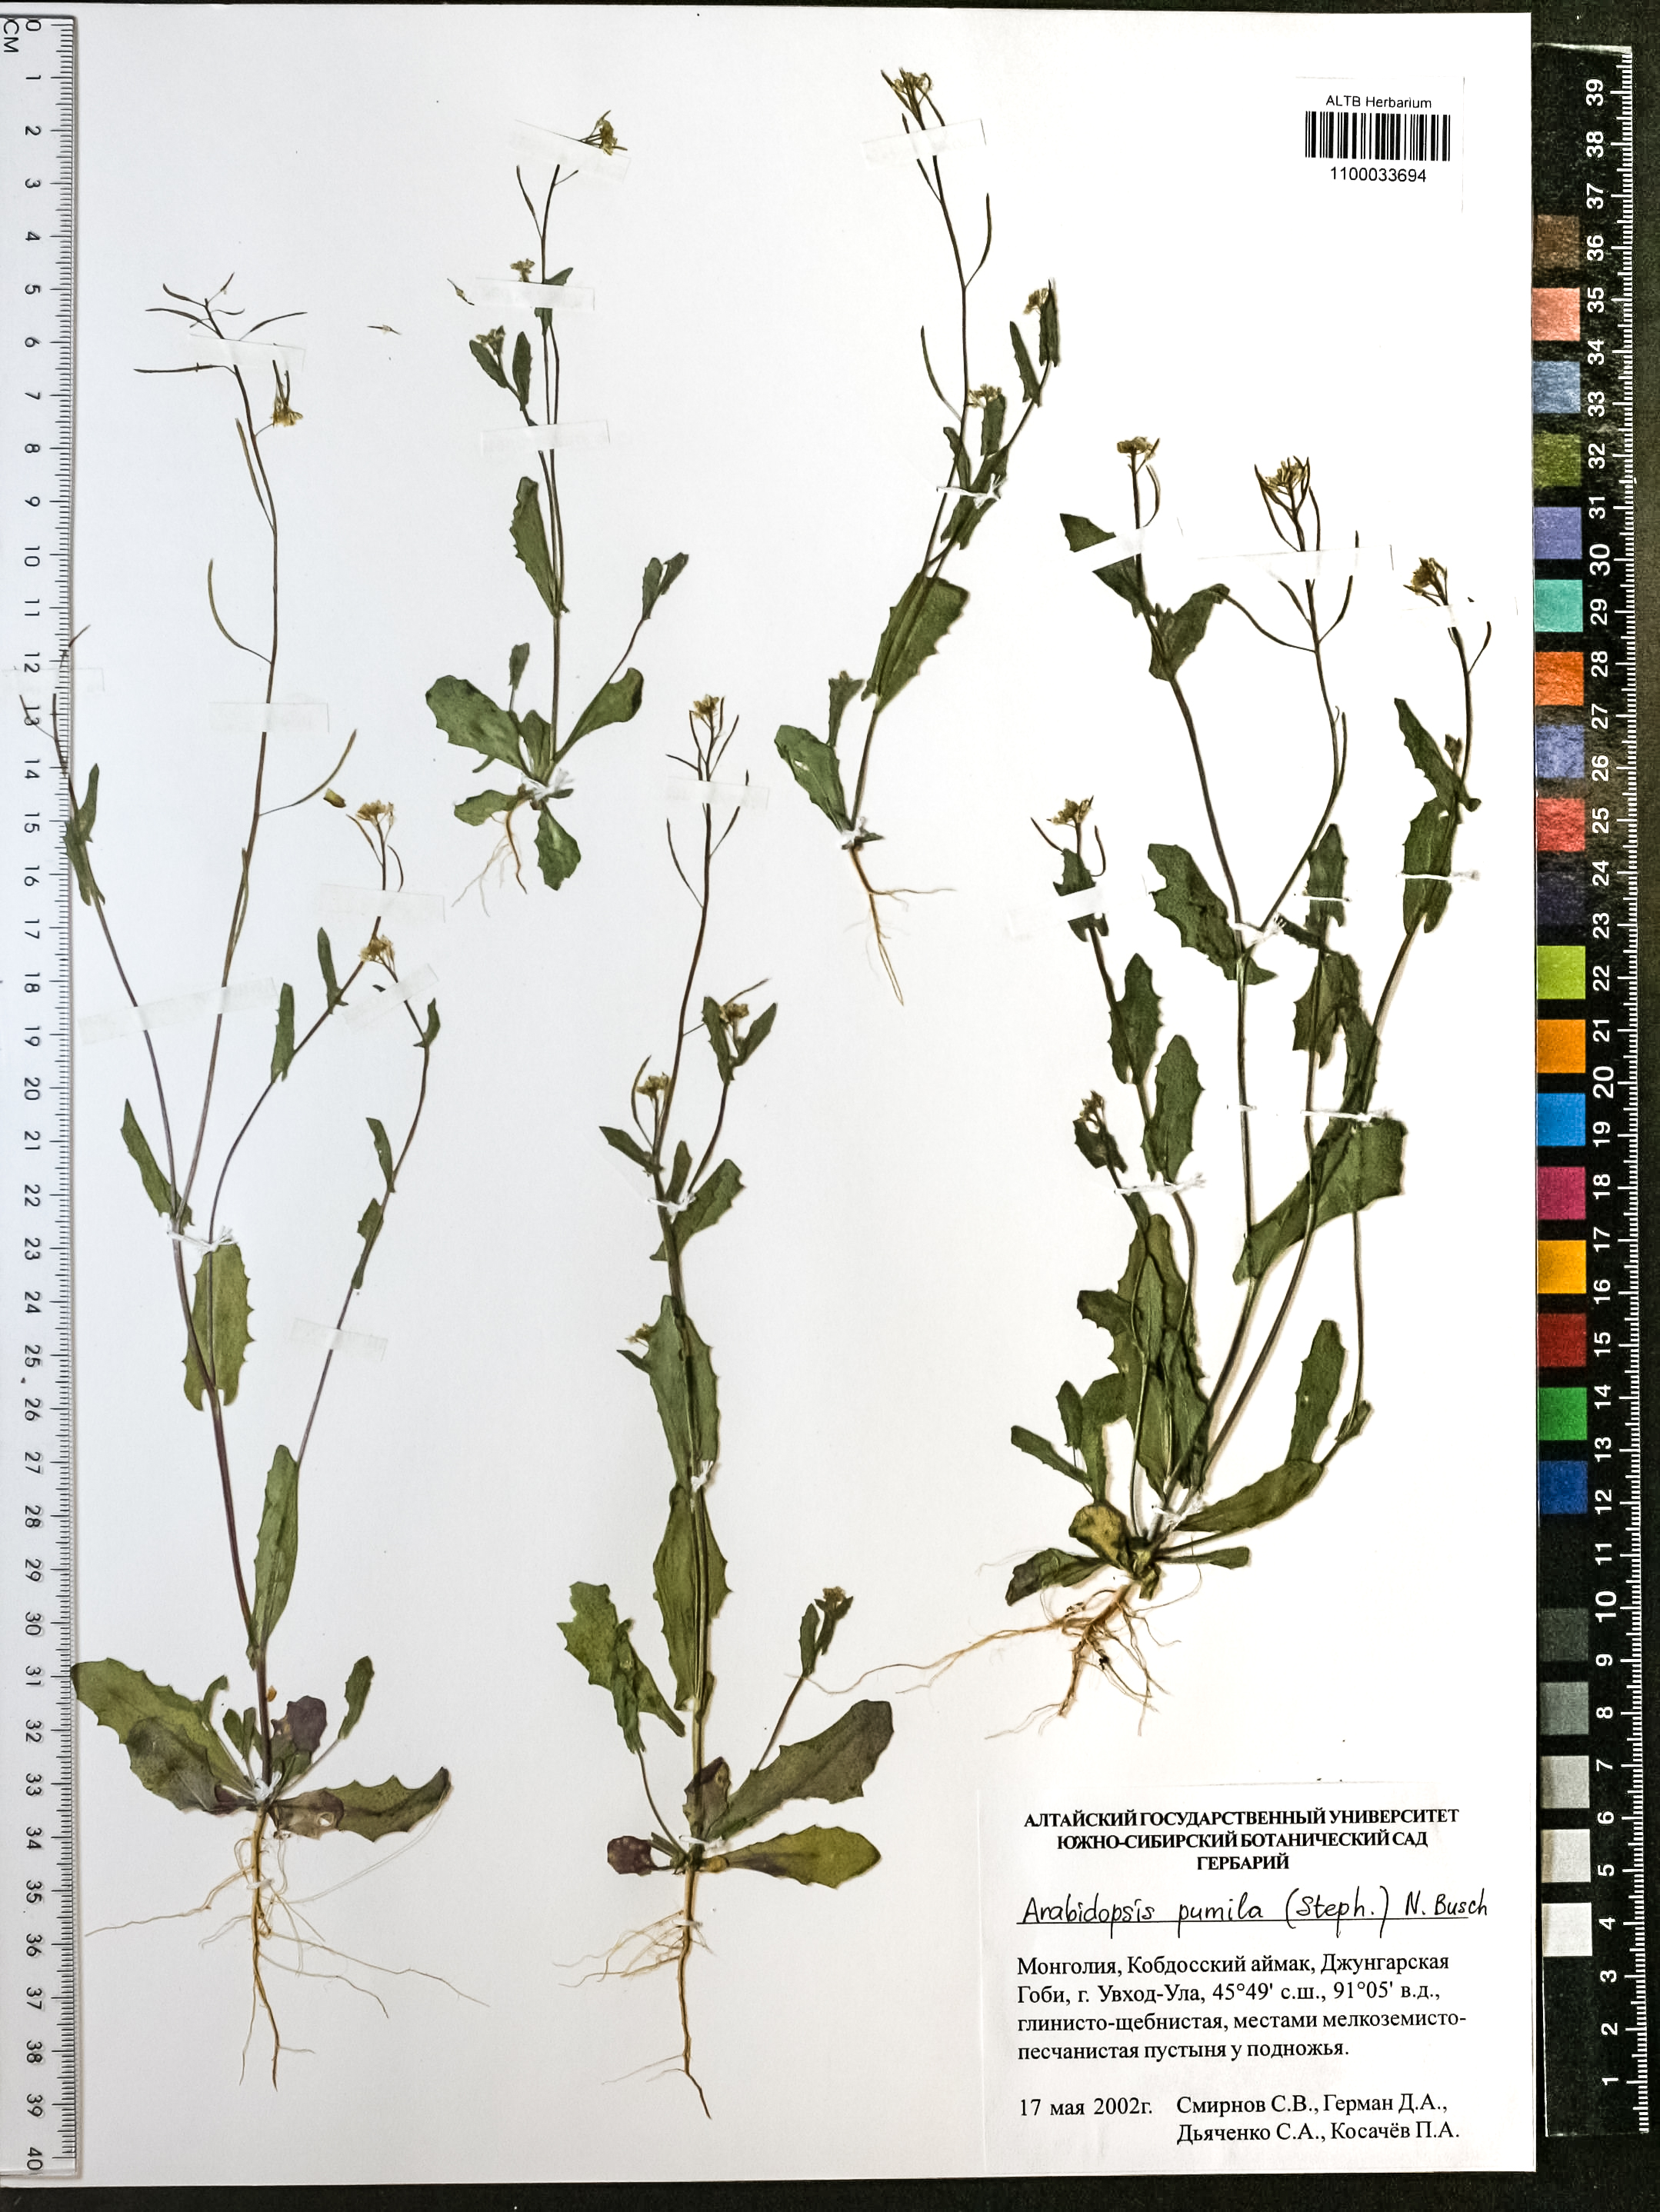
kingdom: Plantae
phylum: Tracheophyta
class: Magnoliopsida
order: Brassicales
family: Brassicaceae
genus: Sisymbrium
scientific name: Sisymbrium pumilum
